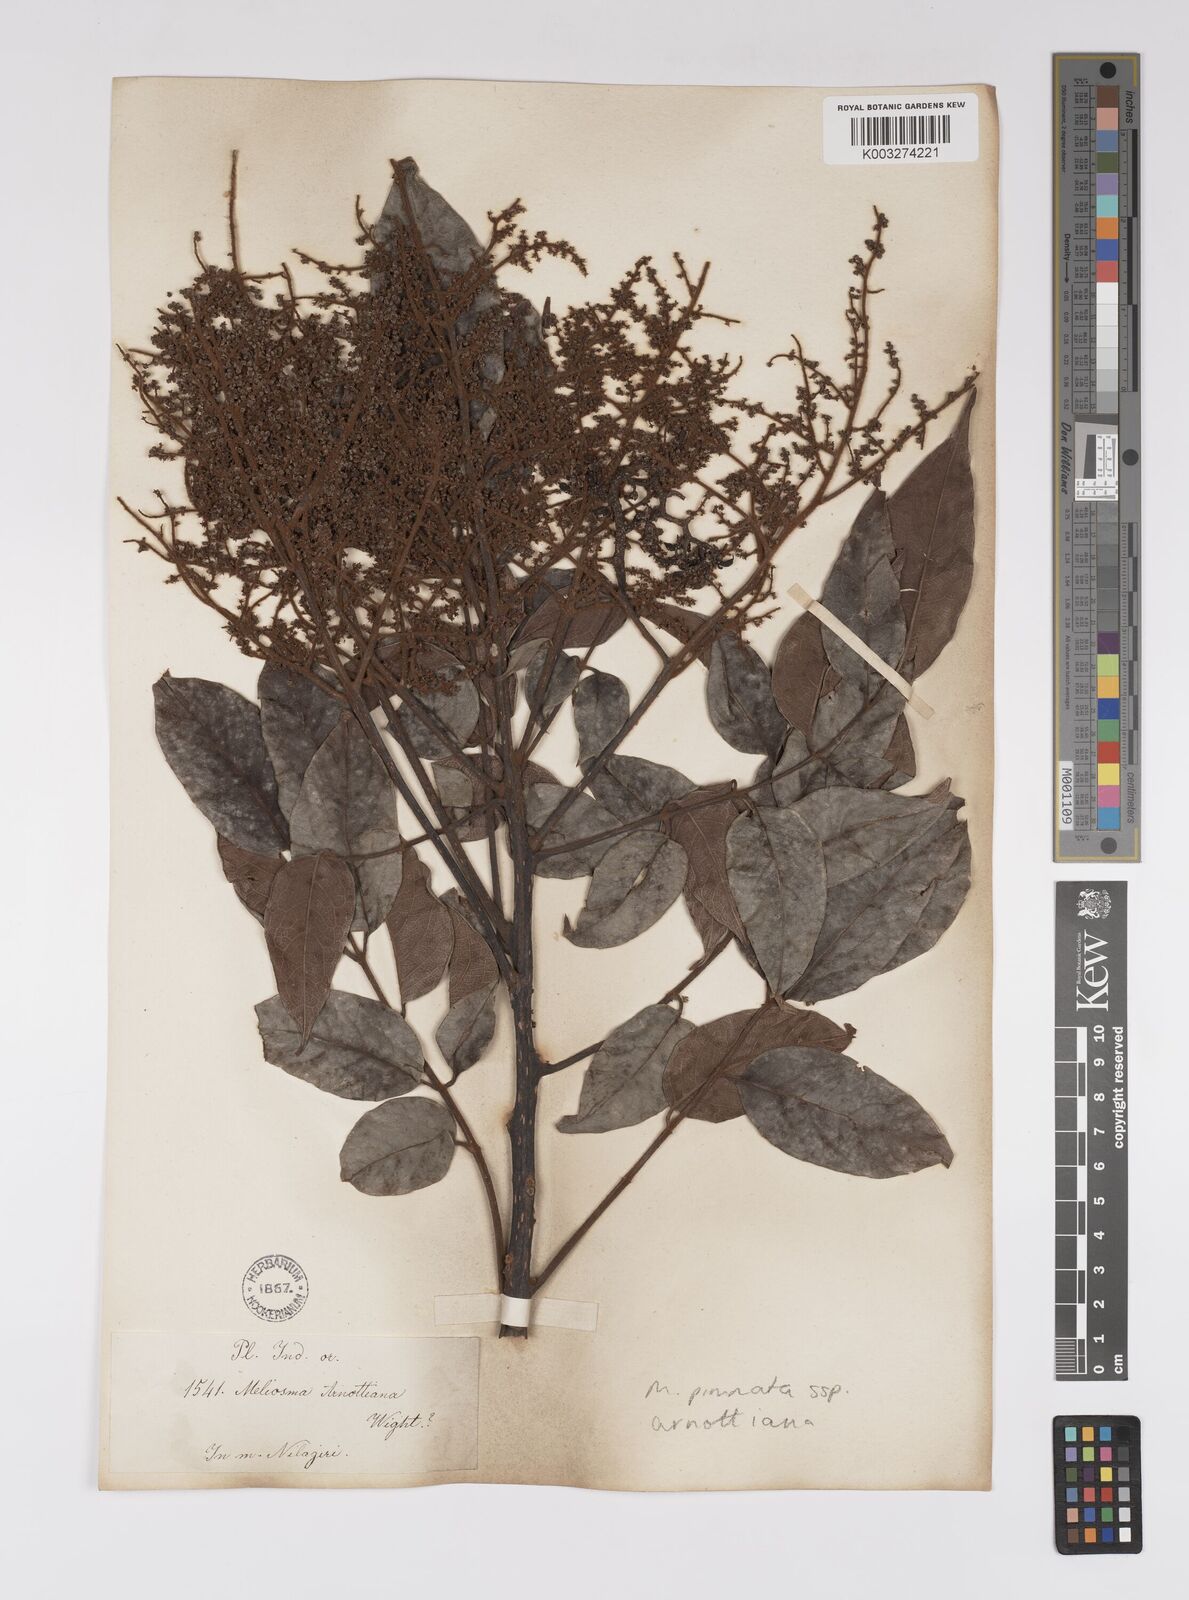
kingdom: Plantae
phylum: Tracheophyta
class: Magnoliopsida
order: Proteales
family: Sabiaceae
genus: Meliosma
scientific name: Meliosma rhoifolia
